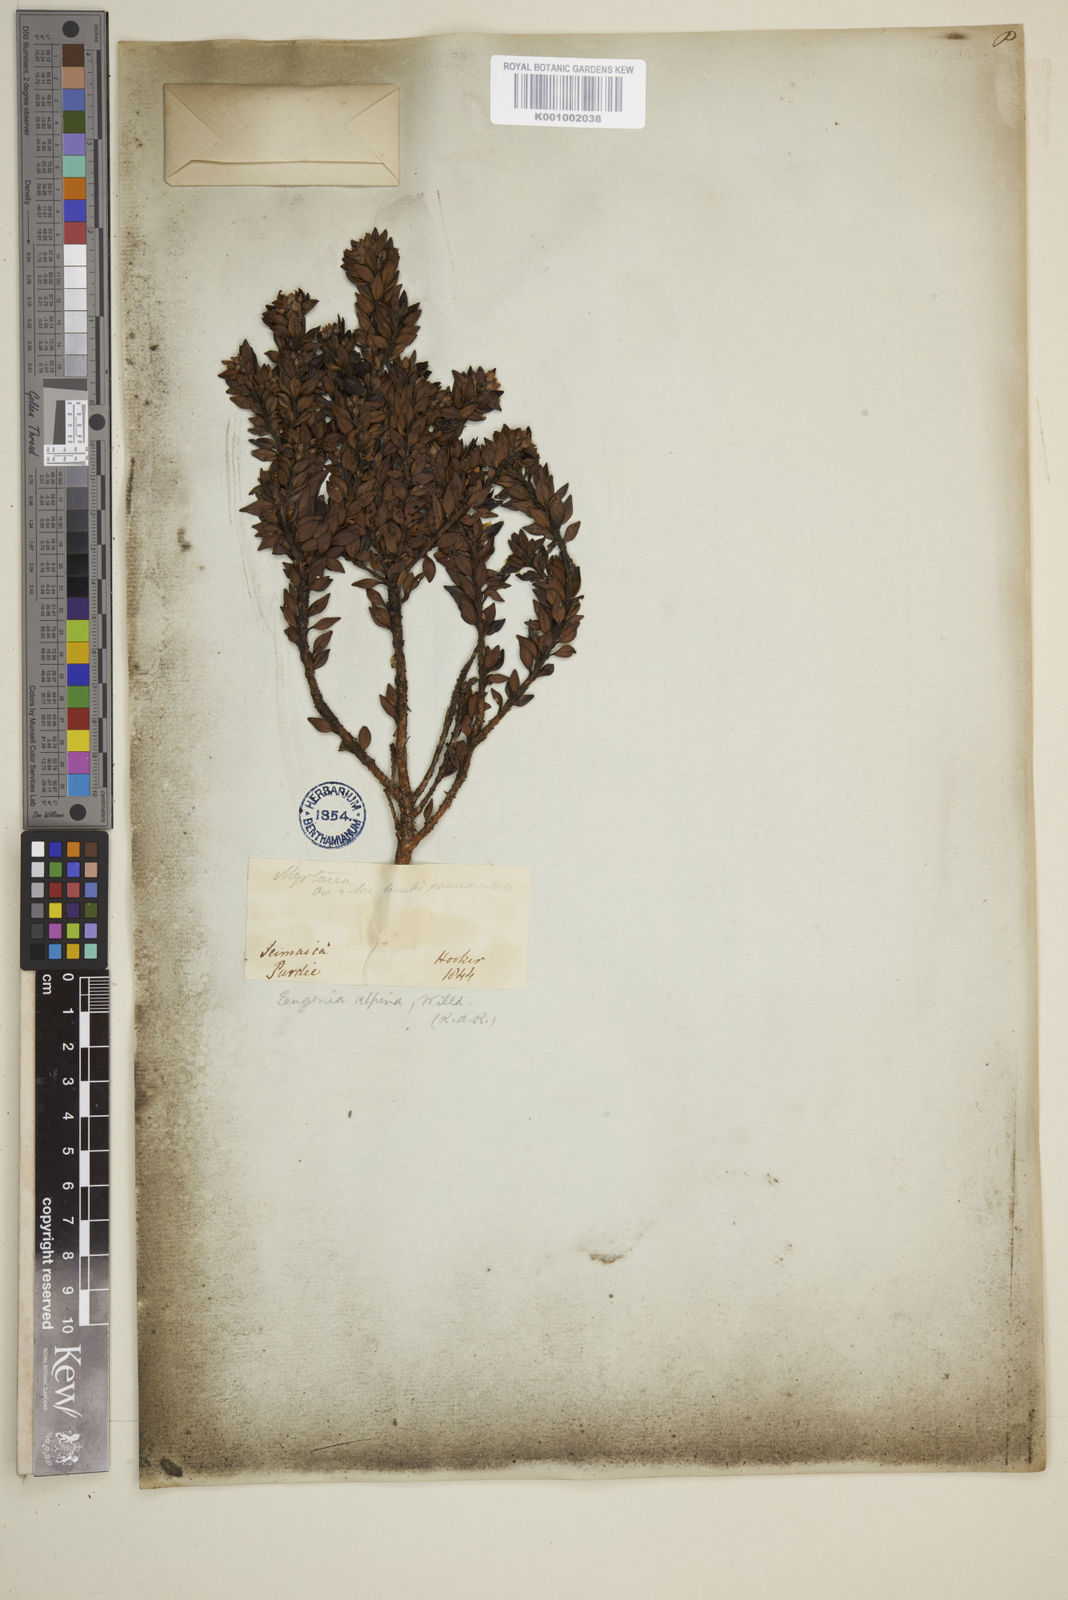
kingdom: Plantae
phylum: Tracheophyta
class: Magnoliopsida
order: Myrtales
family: Myrtaceae
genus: Eugenia
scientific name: Eugenia alpina
